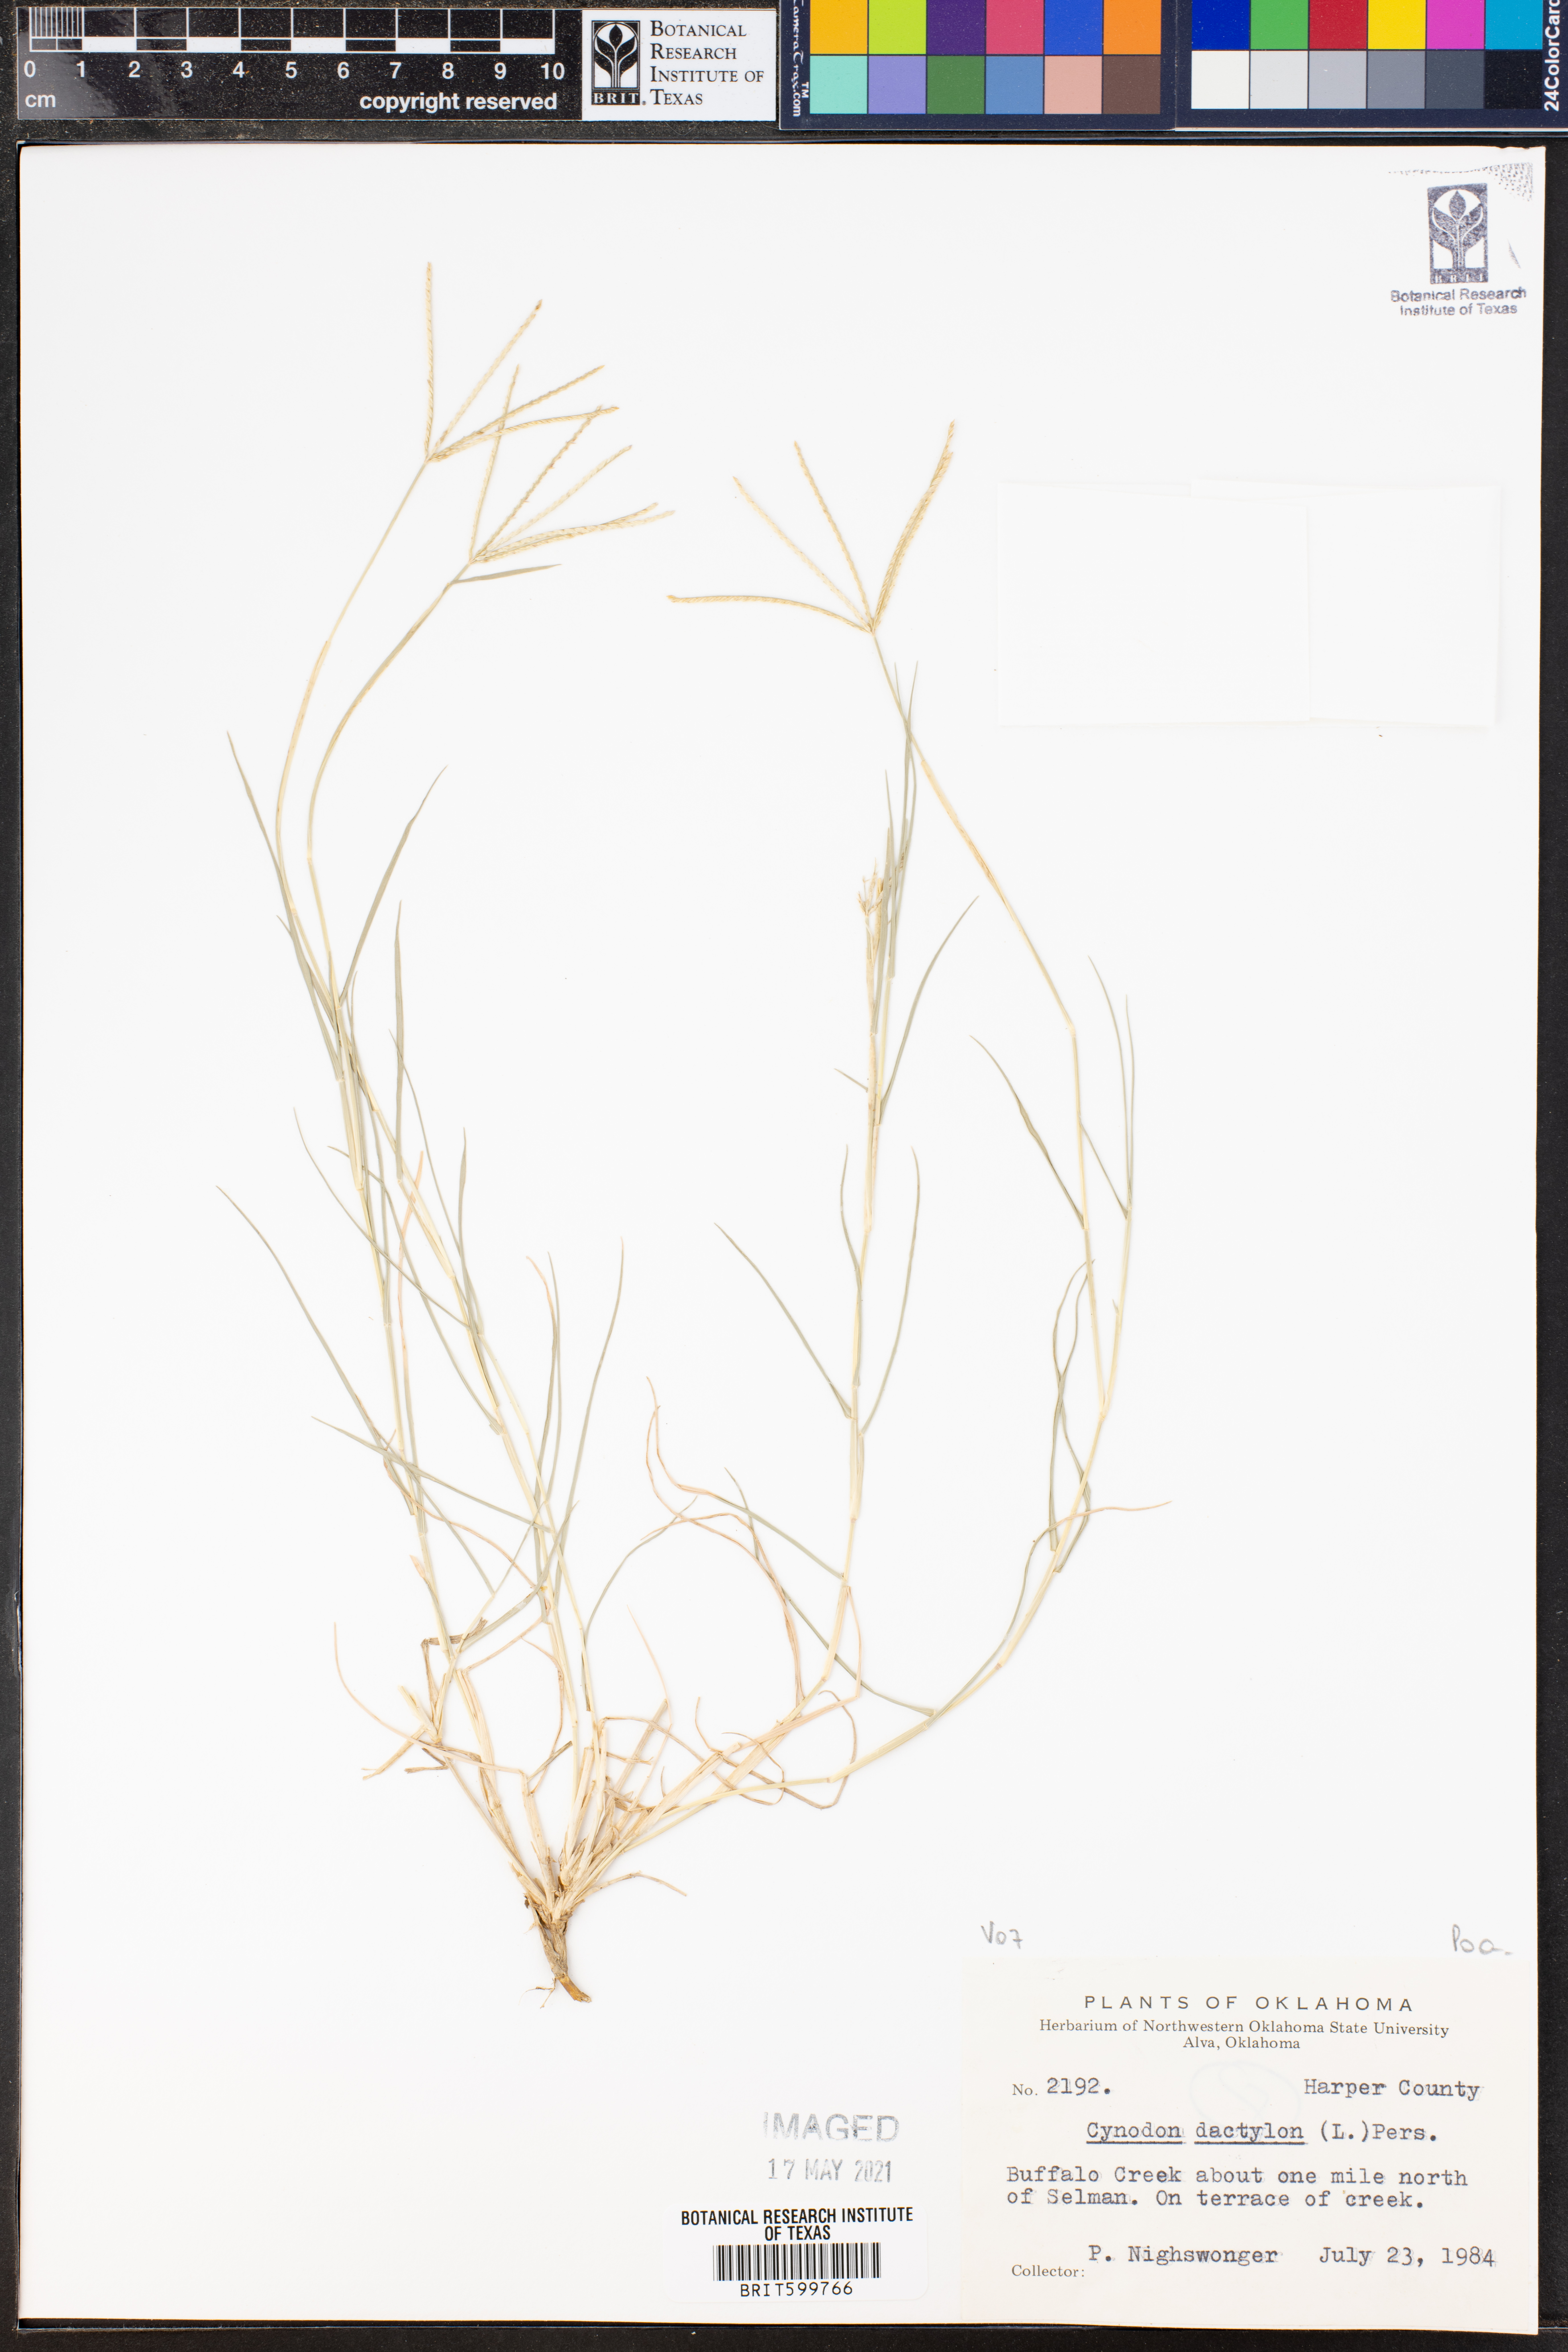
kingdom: Plantae
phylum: Tracheophyta
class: Liliopsida
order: Poales
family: Poaceae
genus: Cynodon
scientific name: Cynodon dactylon
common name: Bermuda grass
